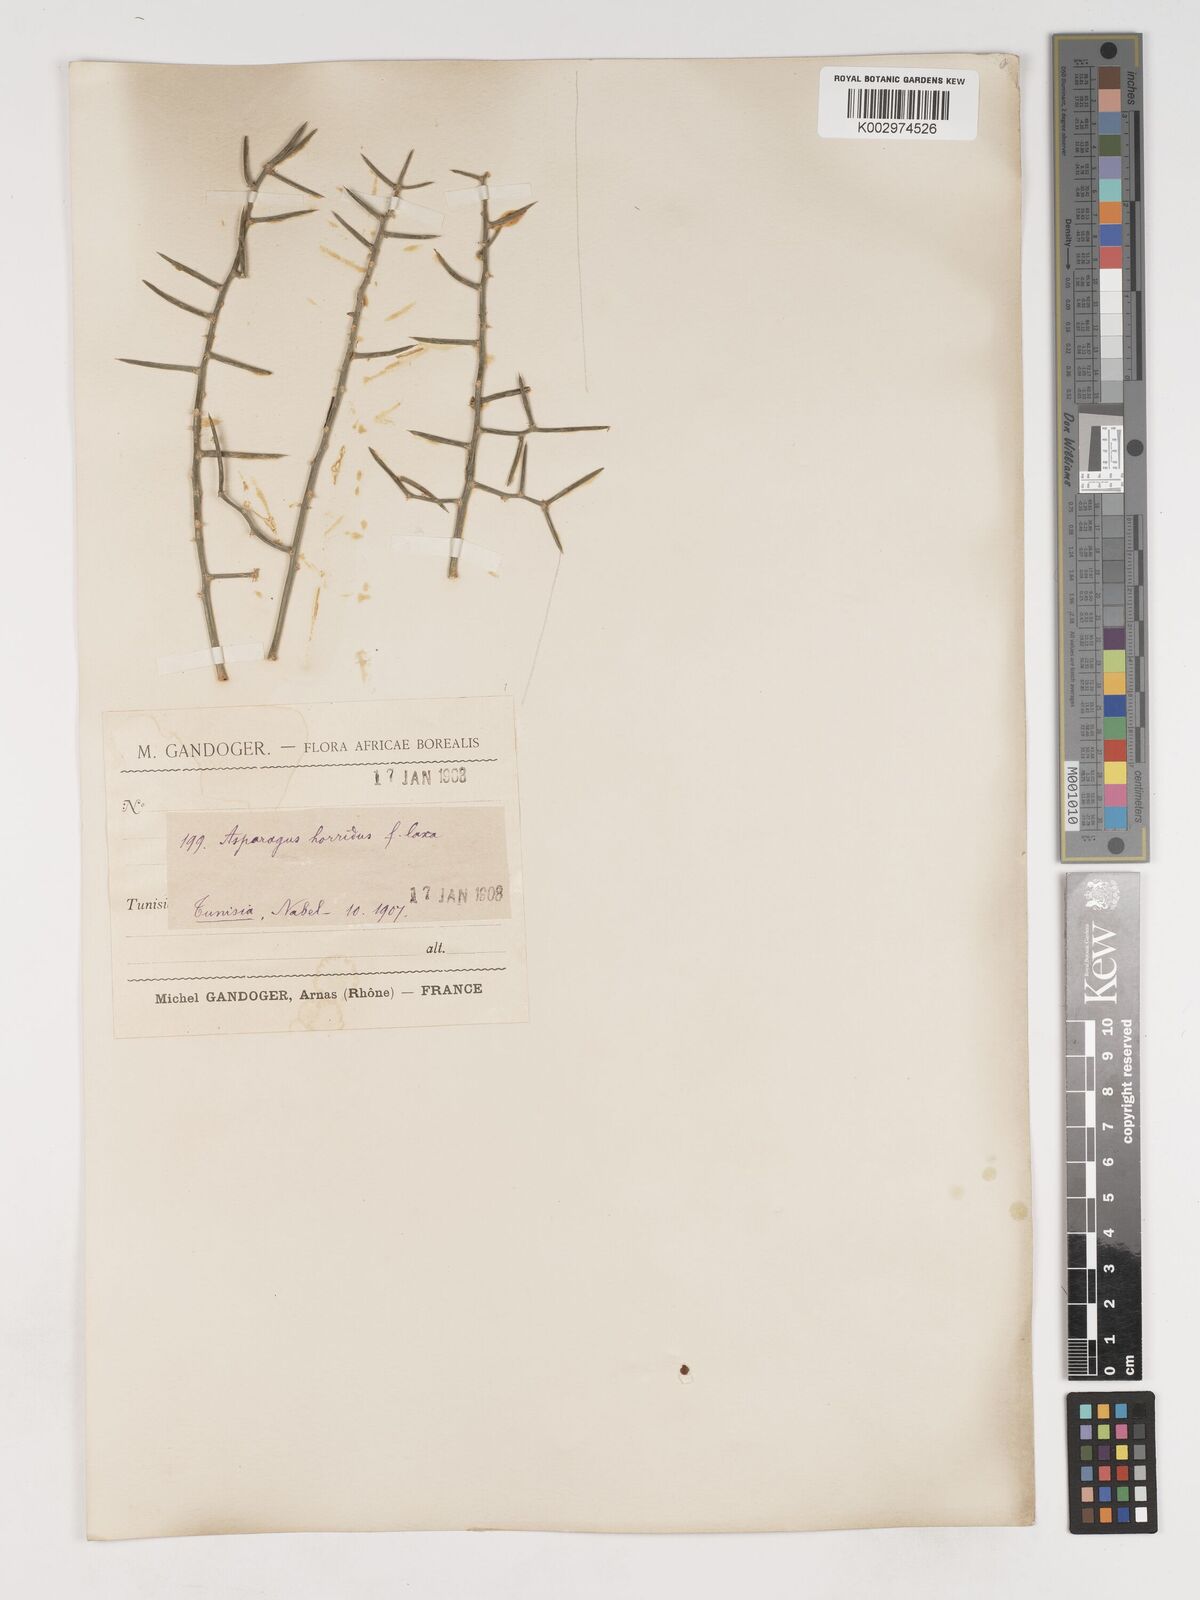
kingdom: Plantae
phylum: Tracheophyta
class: Liliopsida
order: Asparagales
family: Asparagaceae
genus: Asparagus
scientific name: Asparagus horridus
